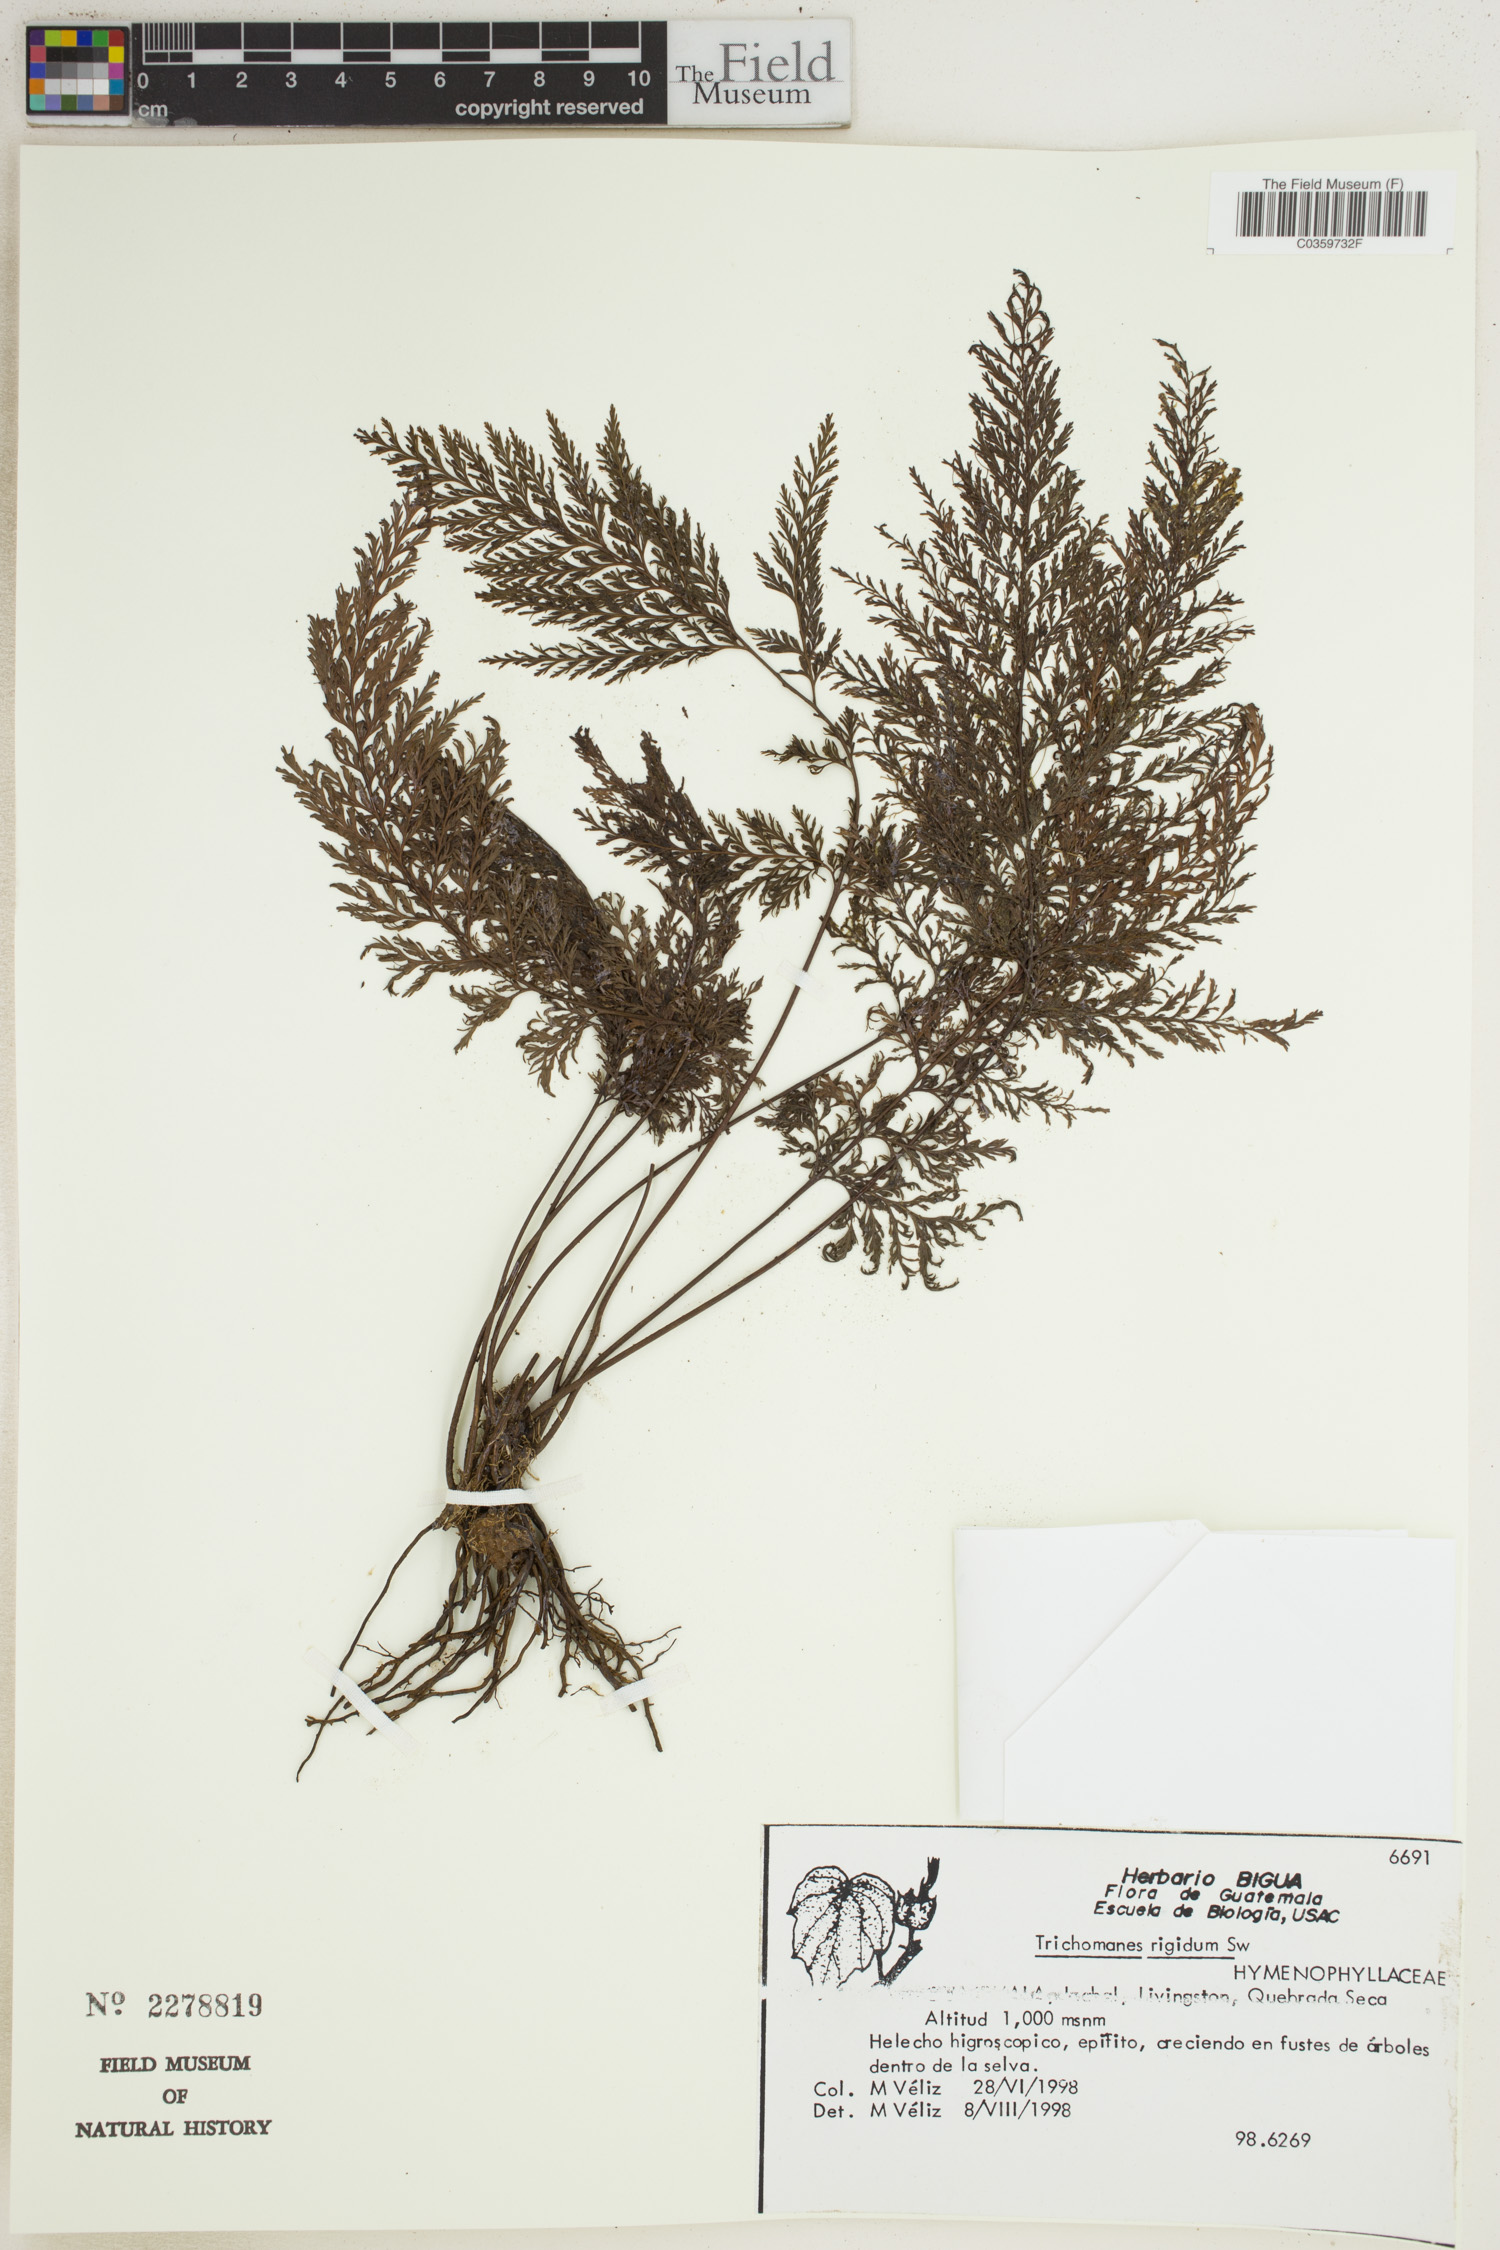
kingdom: Plantae
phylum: Tracheophyta
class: Polypodiopsida
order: Hymenophyllales
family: Hymenophyllaceae
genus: Abrodictyum
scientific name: Abrodictyum rigidum
